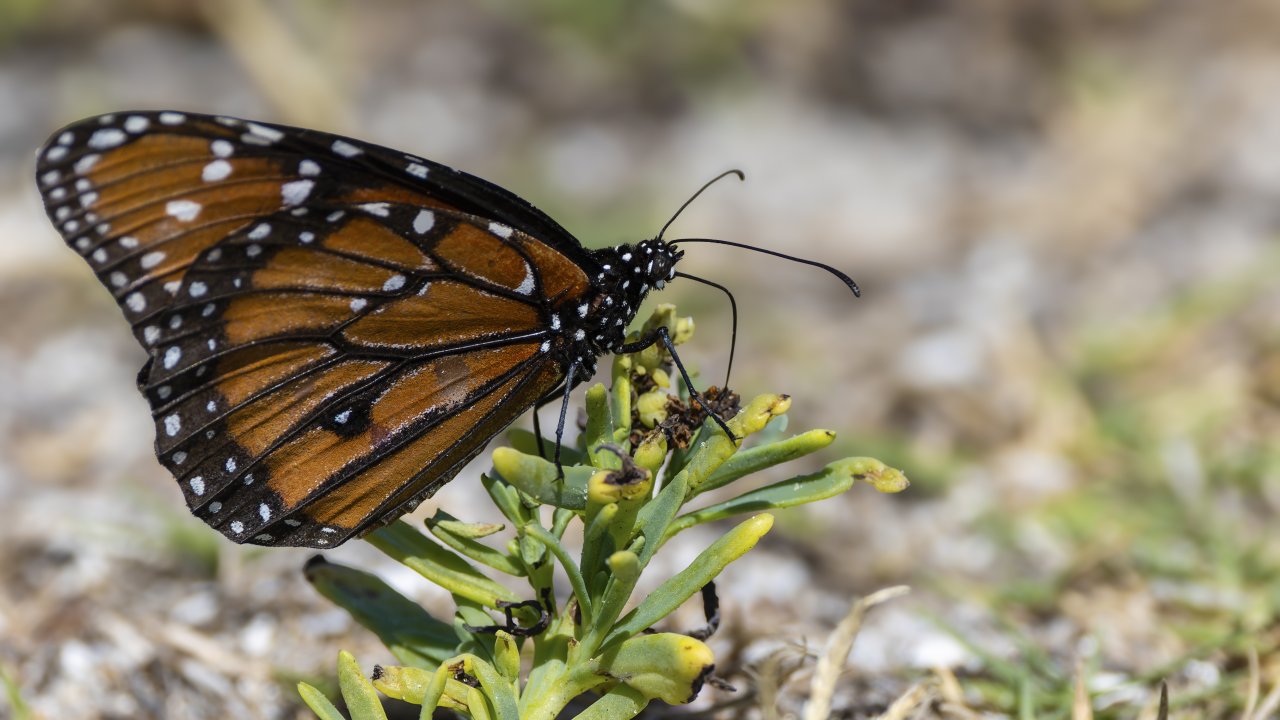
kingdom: Animalia
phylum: Arthropoda
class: Insecta
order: Lepidoptera
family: Nymphalidae
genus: Danaus
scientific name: Danaus gilippus
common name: Queen
